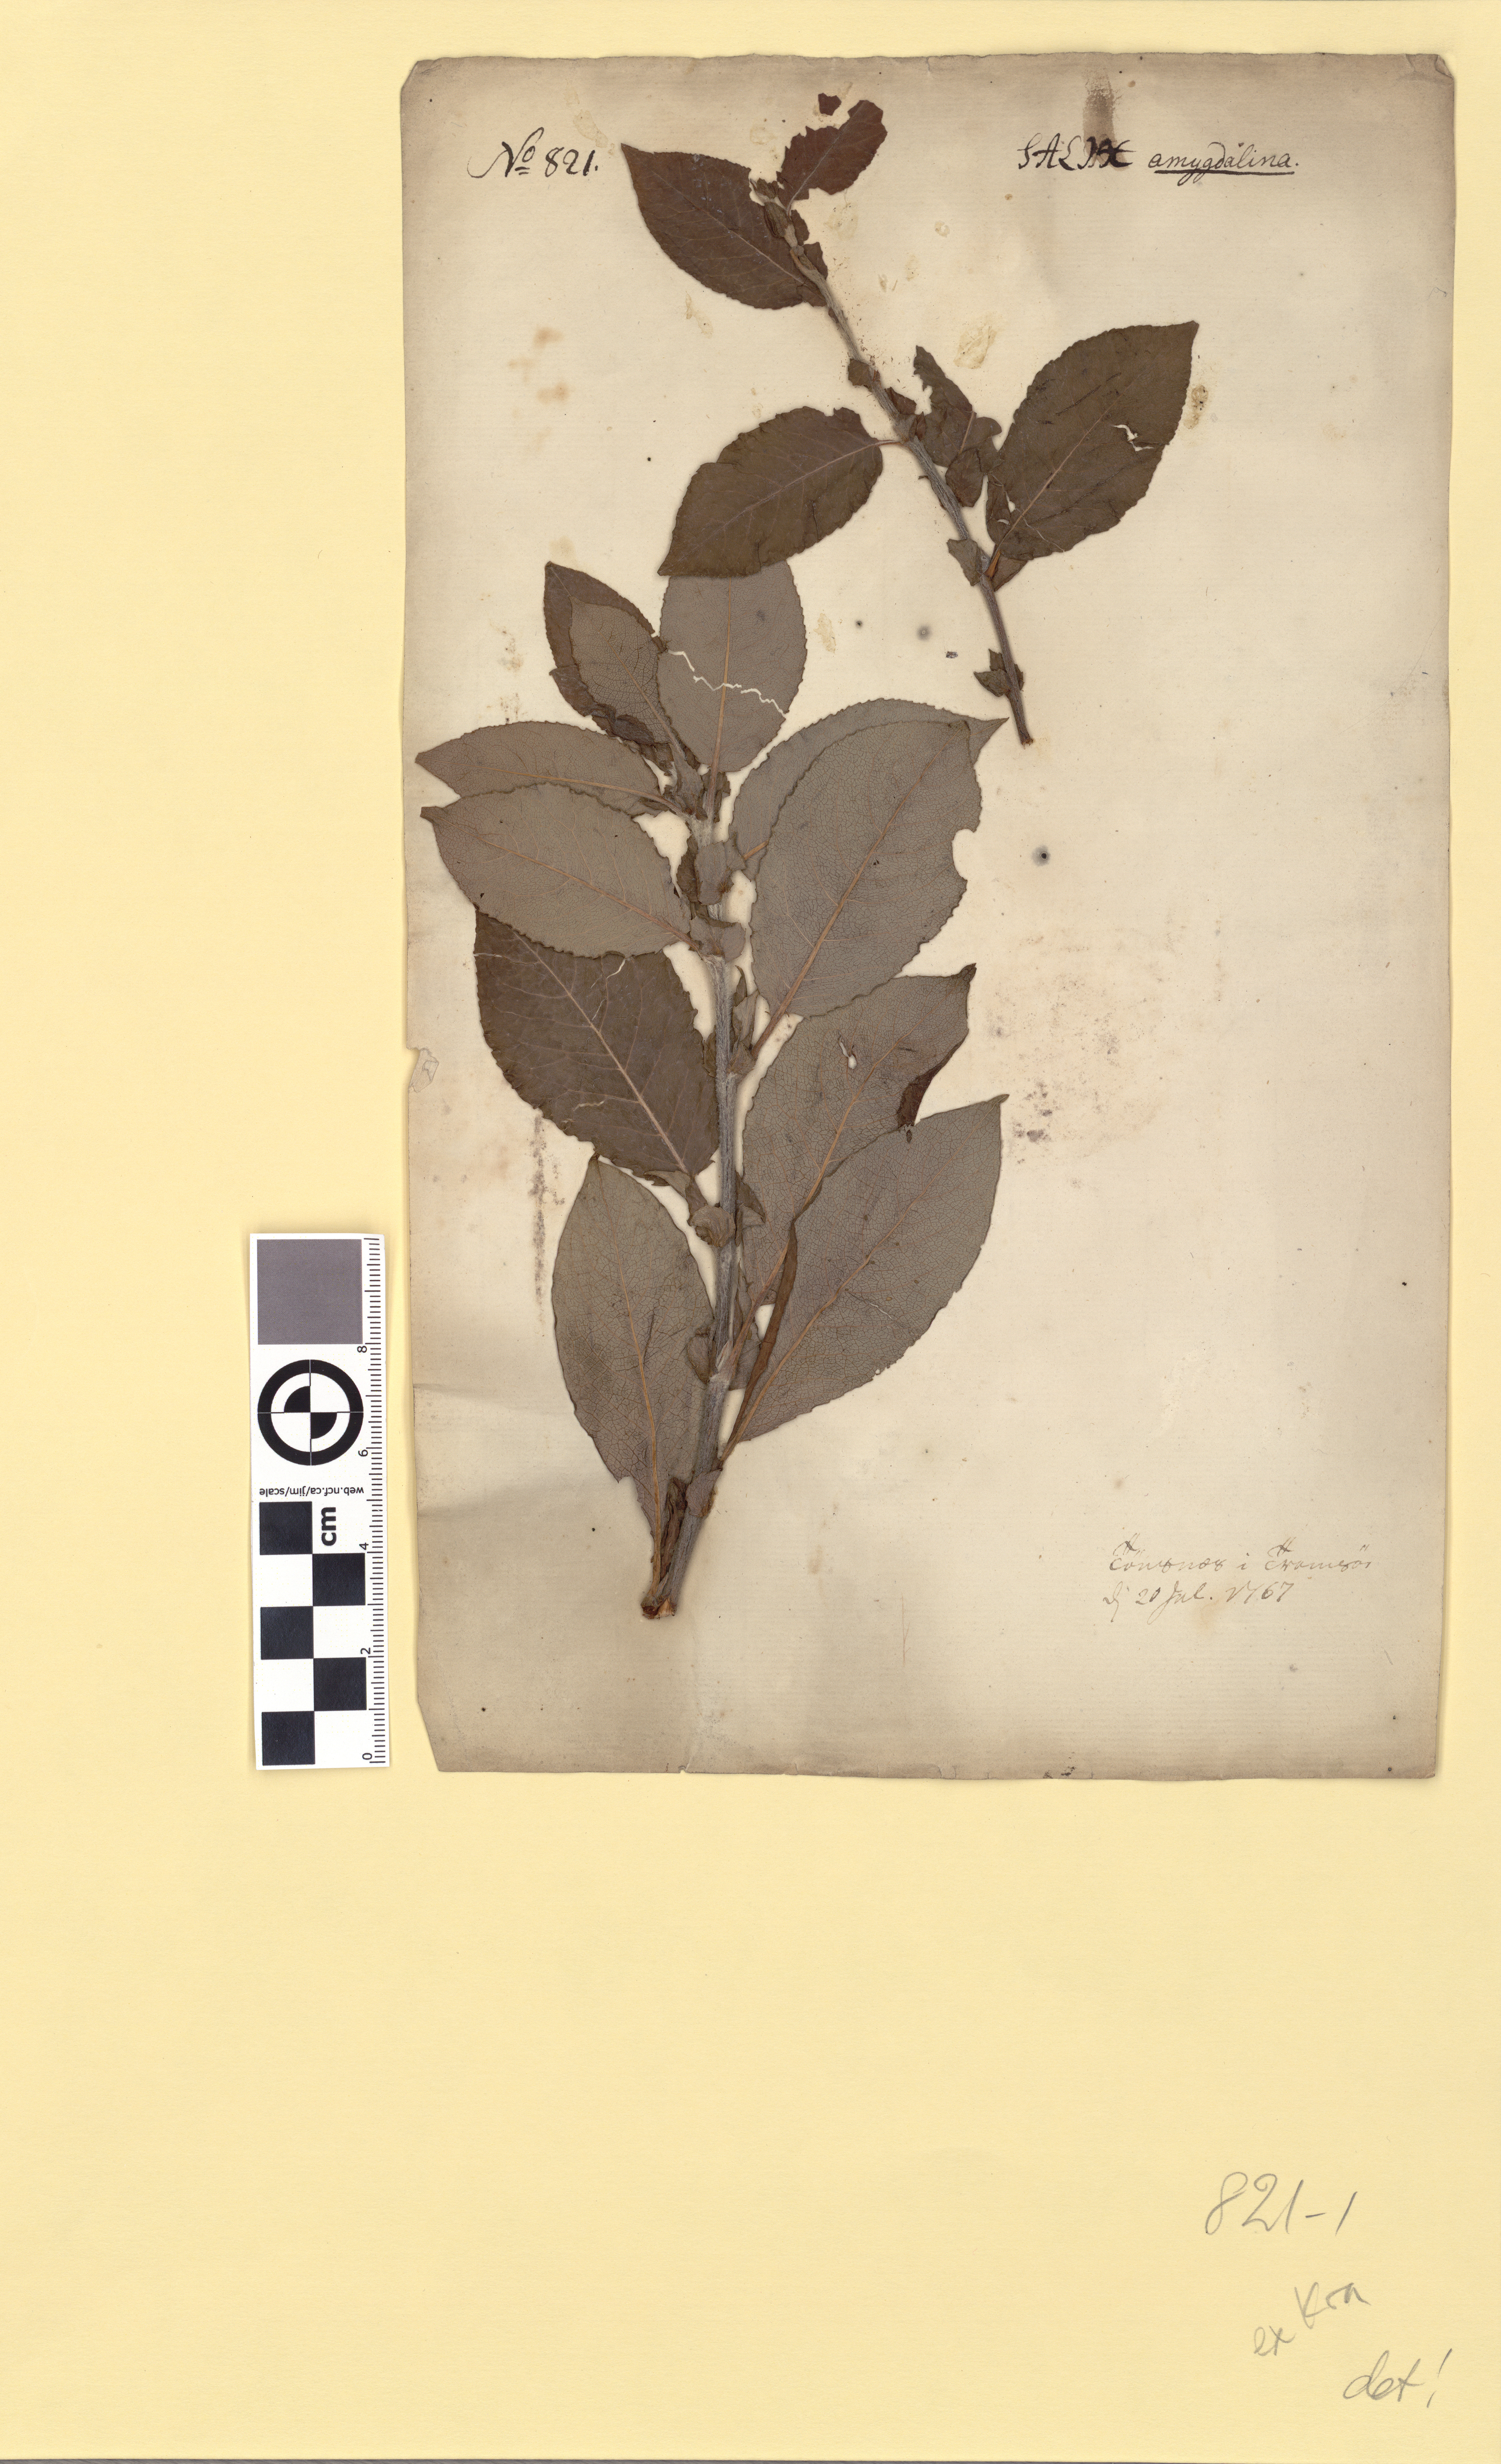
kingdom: Plantae
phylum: Tracheophyta
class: Magnoliopsida
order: Malpighiales
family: Salicaceae
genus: Salix
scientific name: Salix hastata
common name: Halberd willow
